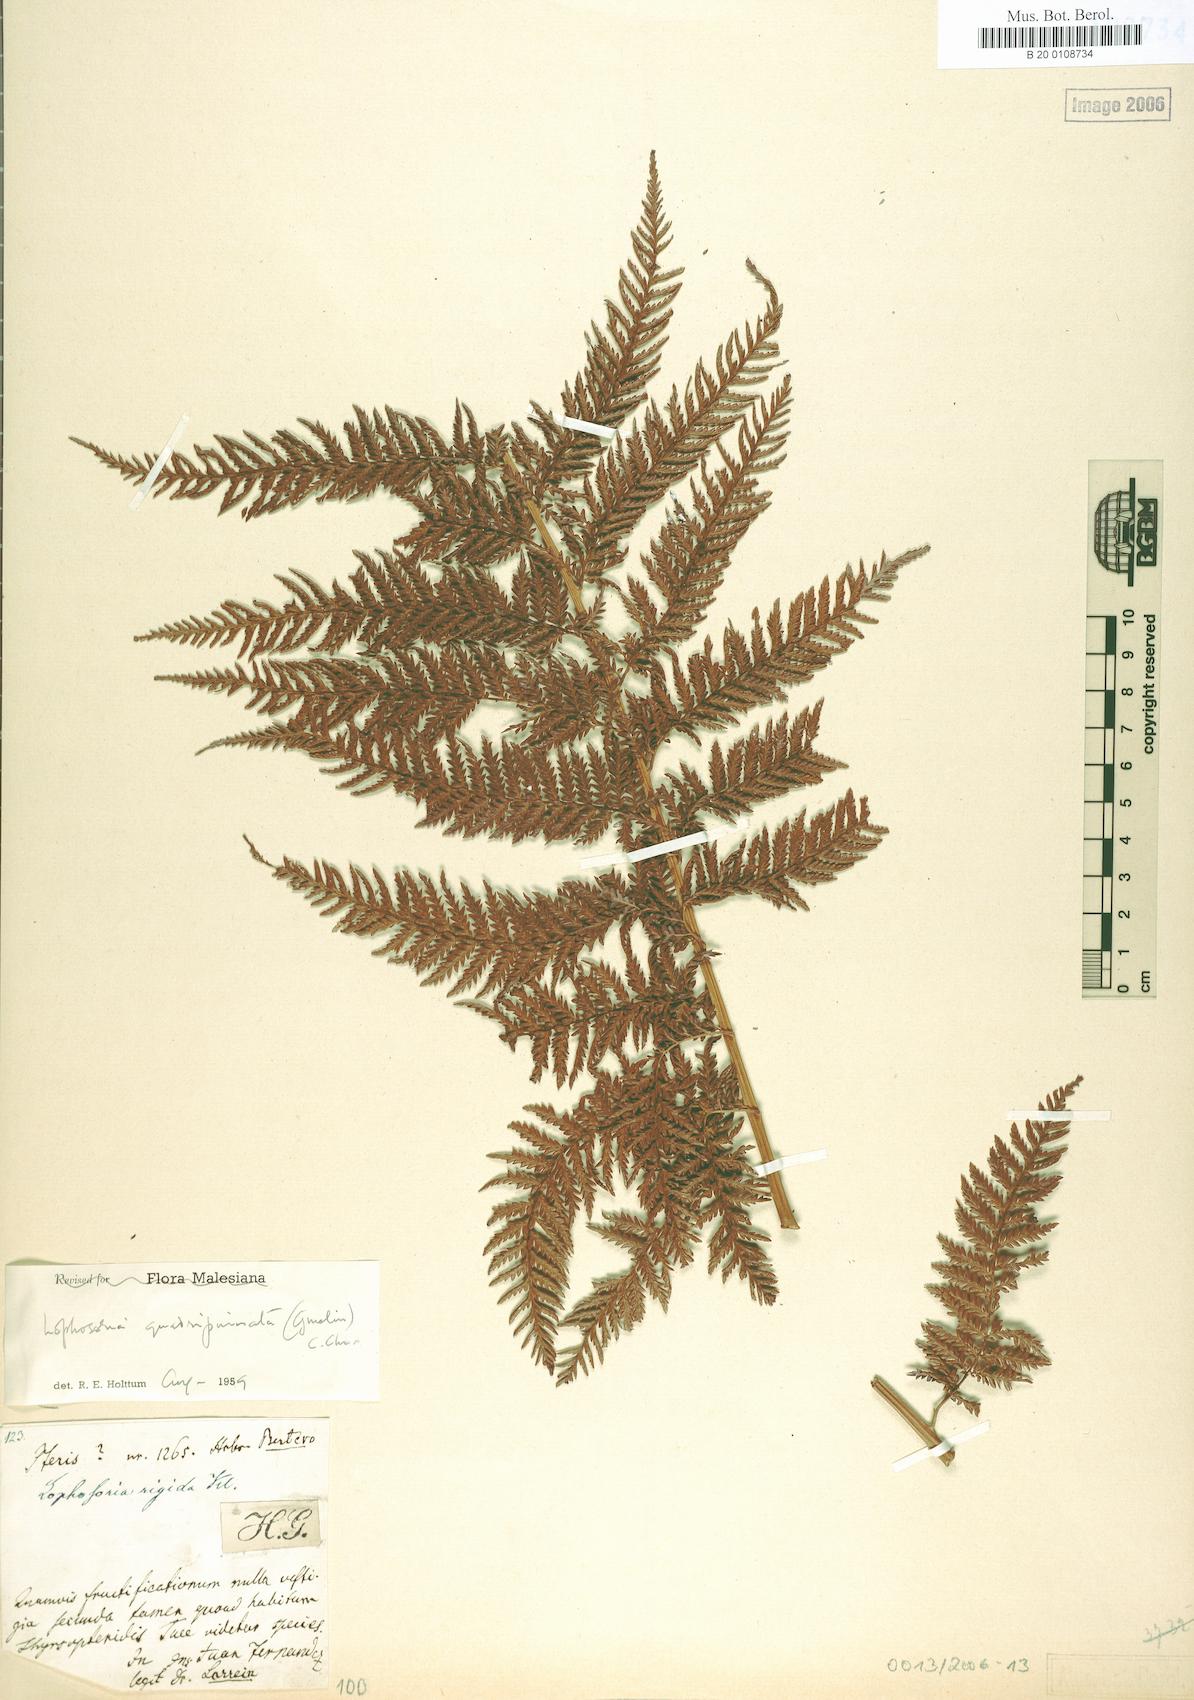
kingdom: Plantae
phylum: Tracheophyta
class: Polypodiopsida
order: Cyatheales
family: Dicksoniaceae
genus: Lophosoria
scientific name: Lophosoria quadripinnata
